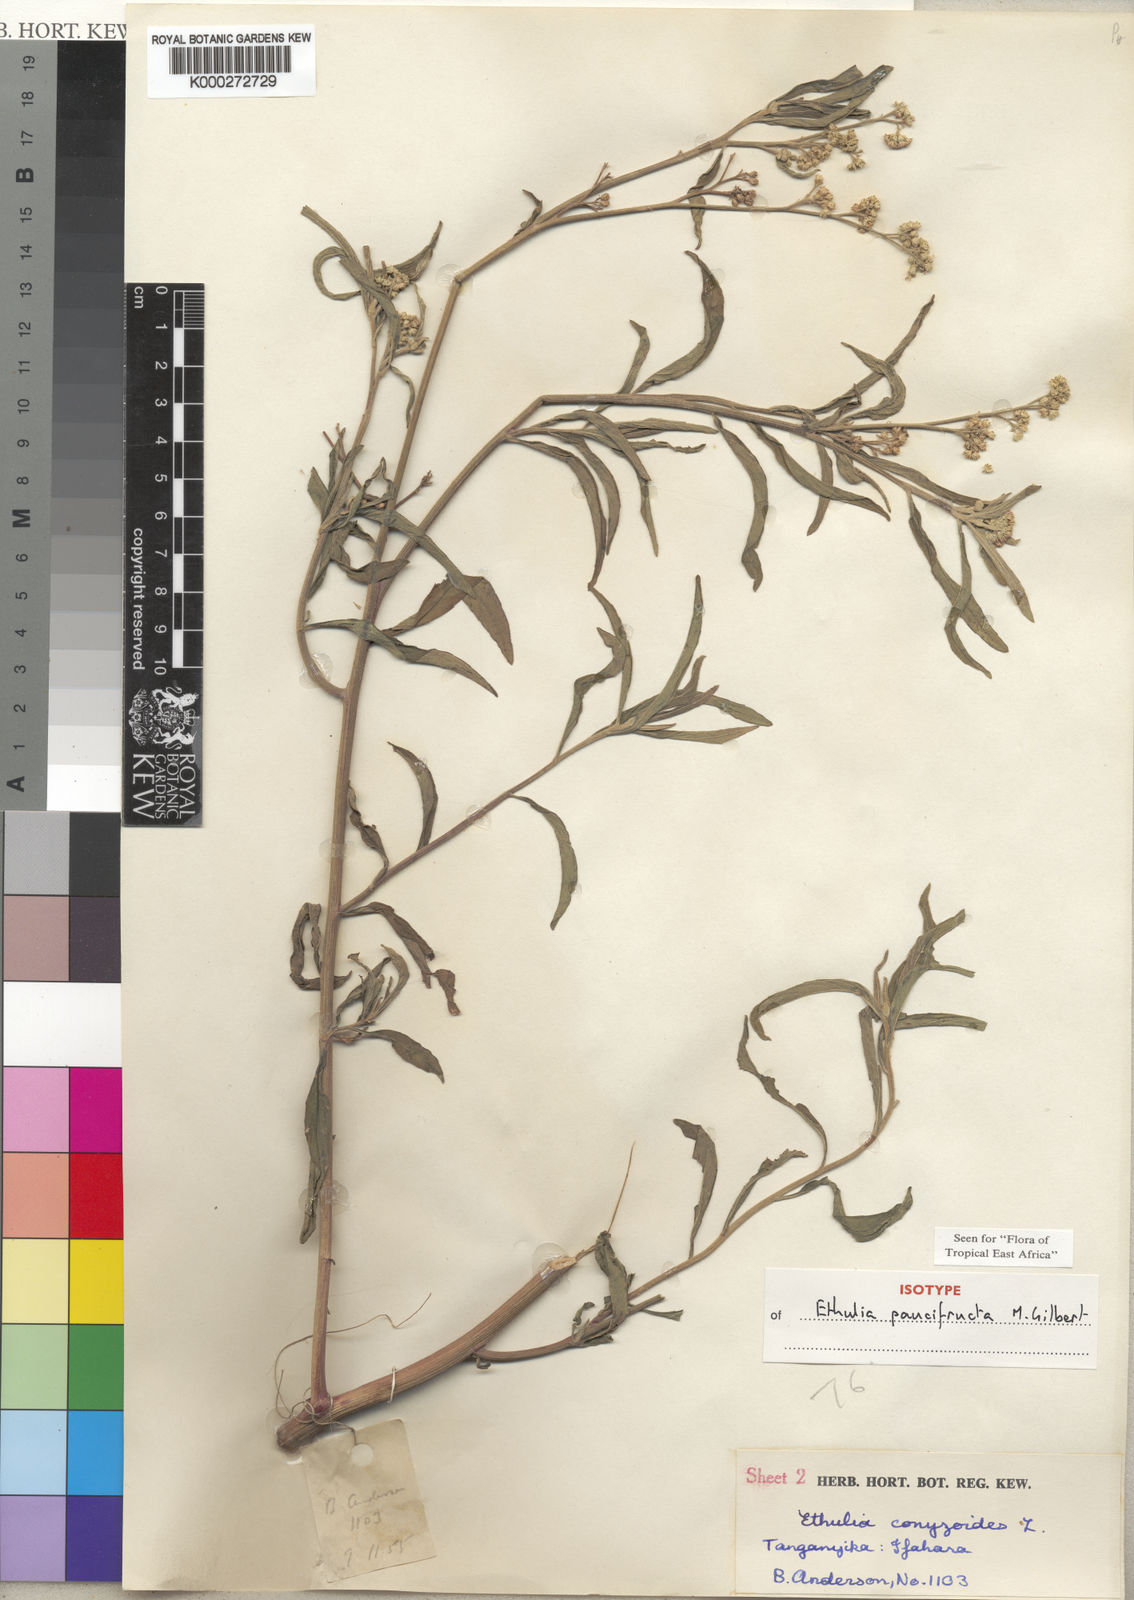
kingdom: Plantae
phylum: Tracheophyta
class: Magnoliopsida
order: Asterales
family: Asteraceae
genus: Ethulia
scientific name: Ethulia paucifructa
